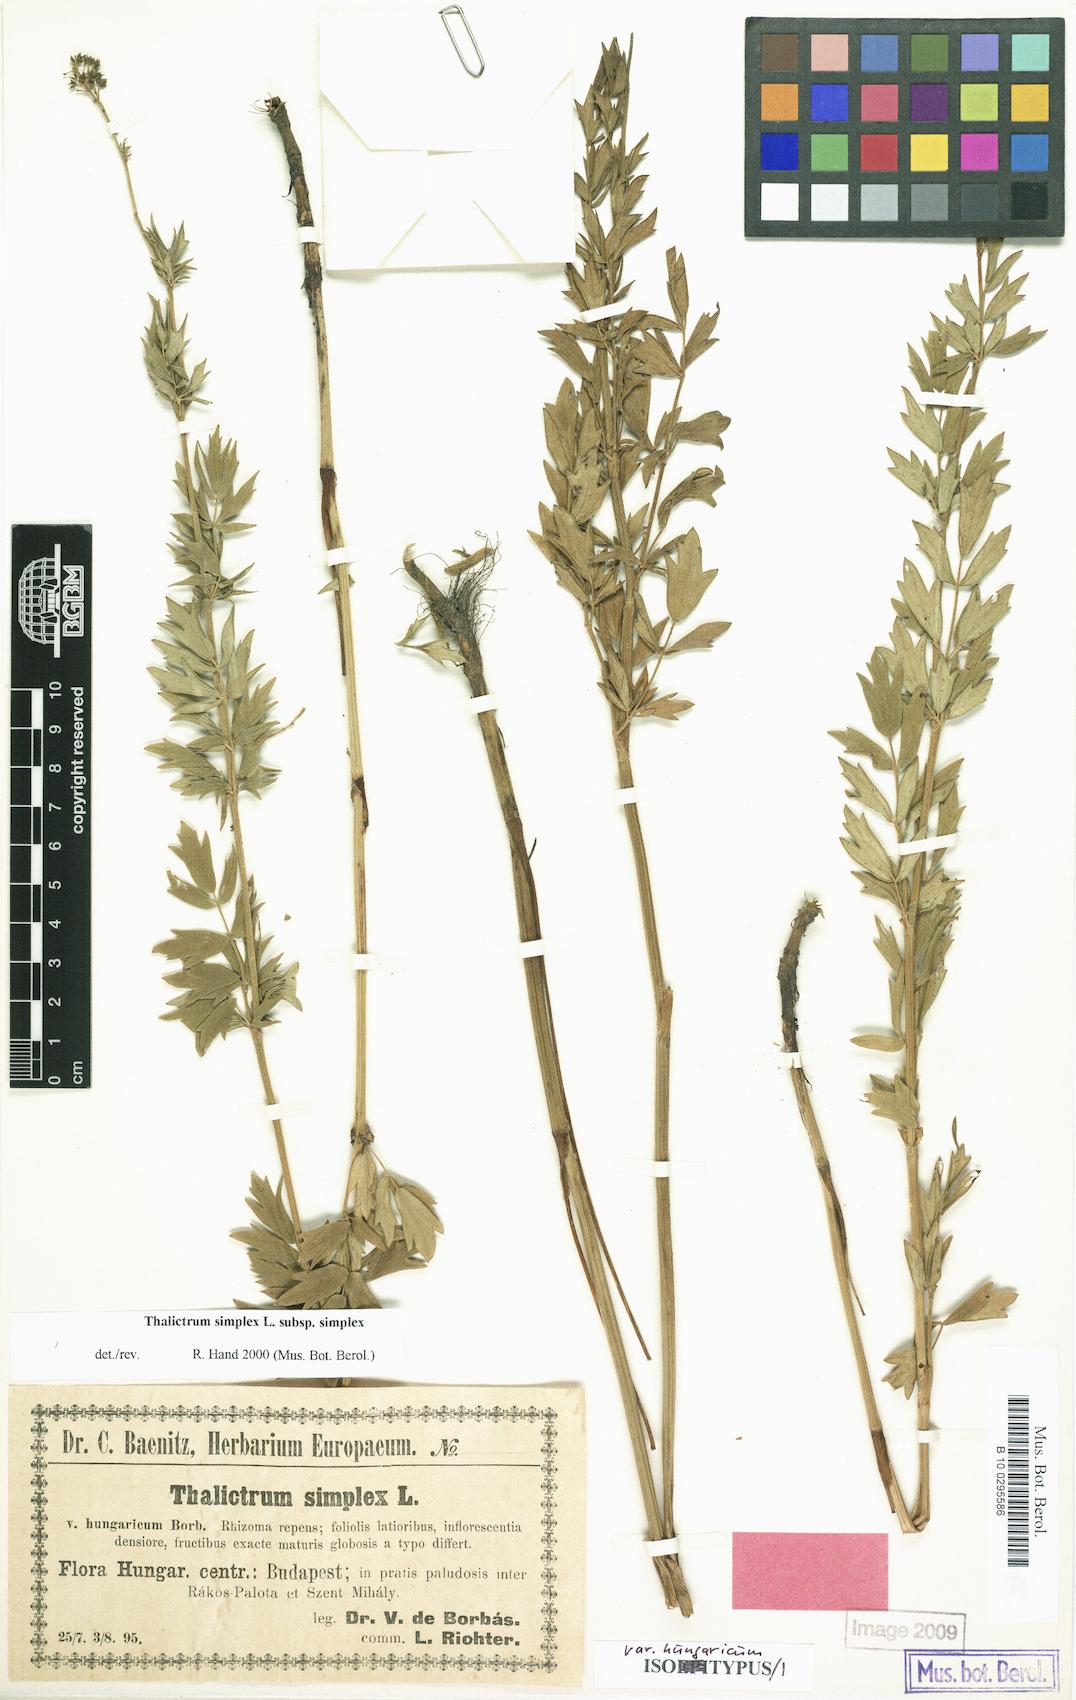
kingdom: Plantae
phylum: Tracheophyta
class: Magnoliopsida
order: Ranunculales
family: Ranunculaceae
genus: Thalictrum
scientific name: Thalictrum simplex
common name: Small meadow-rue
